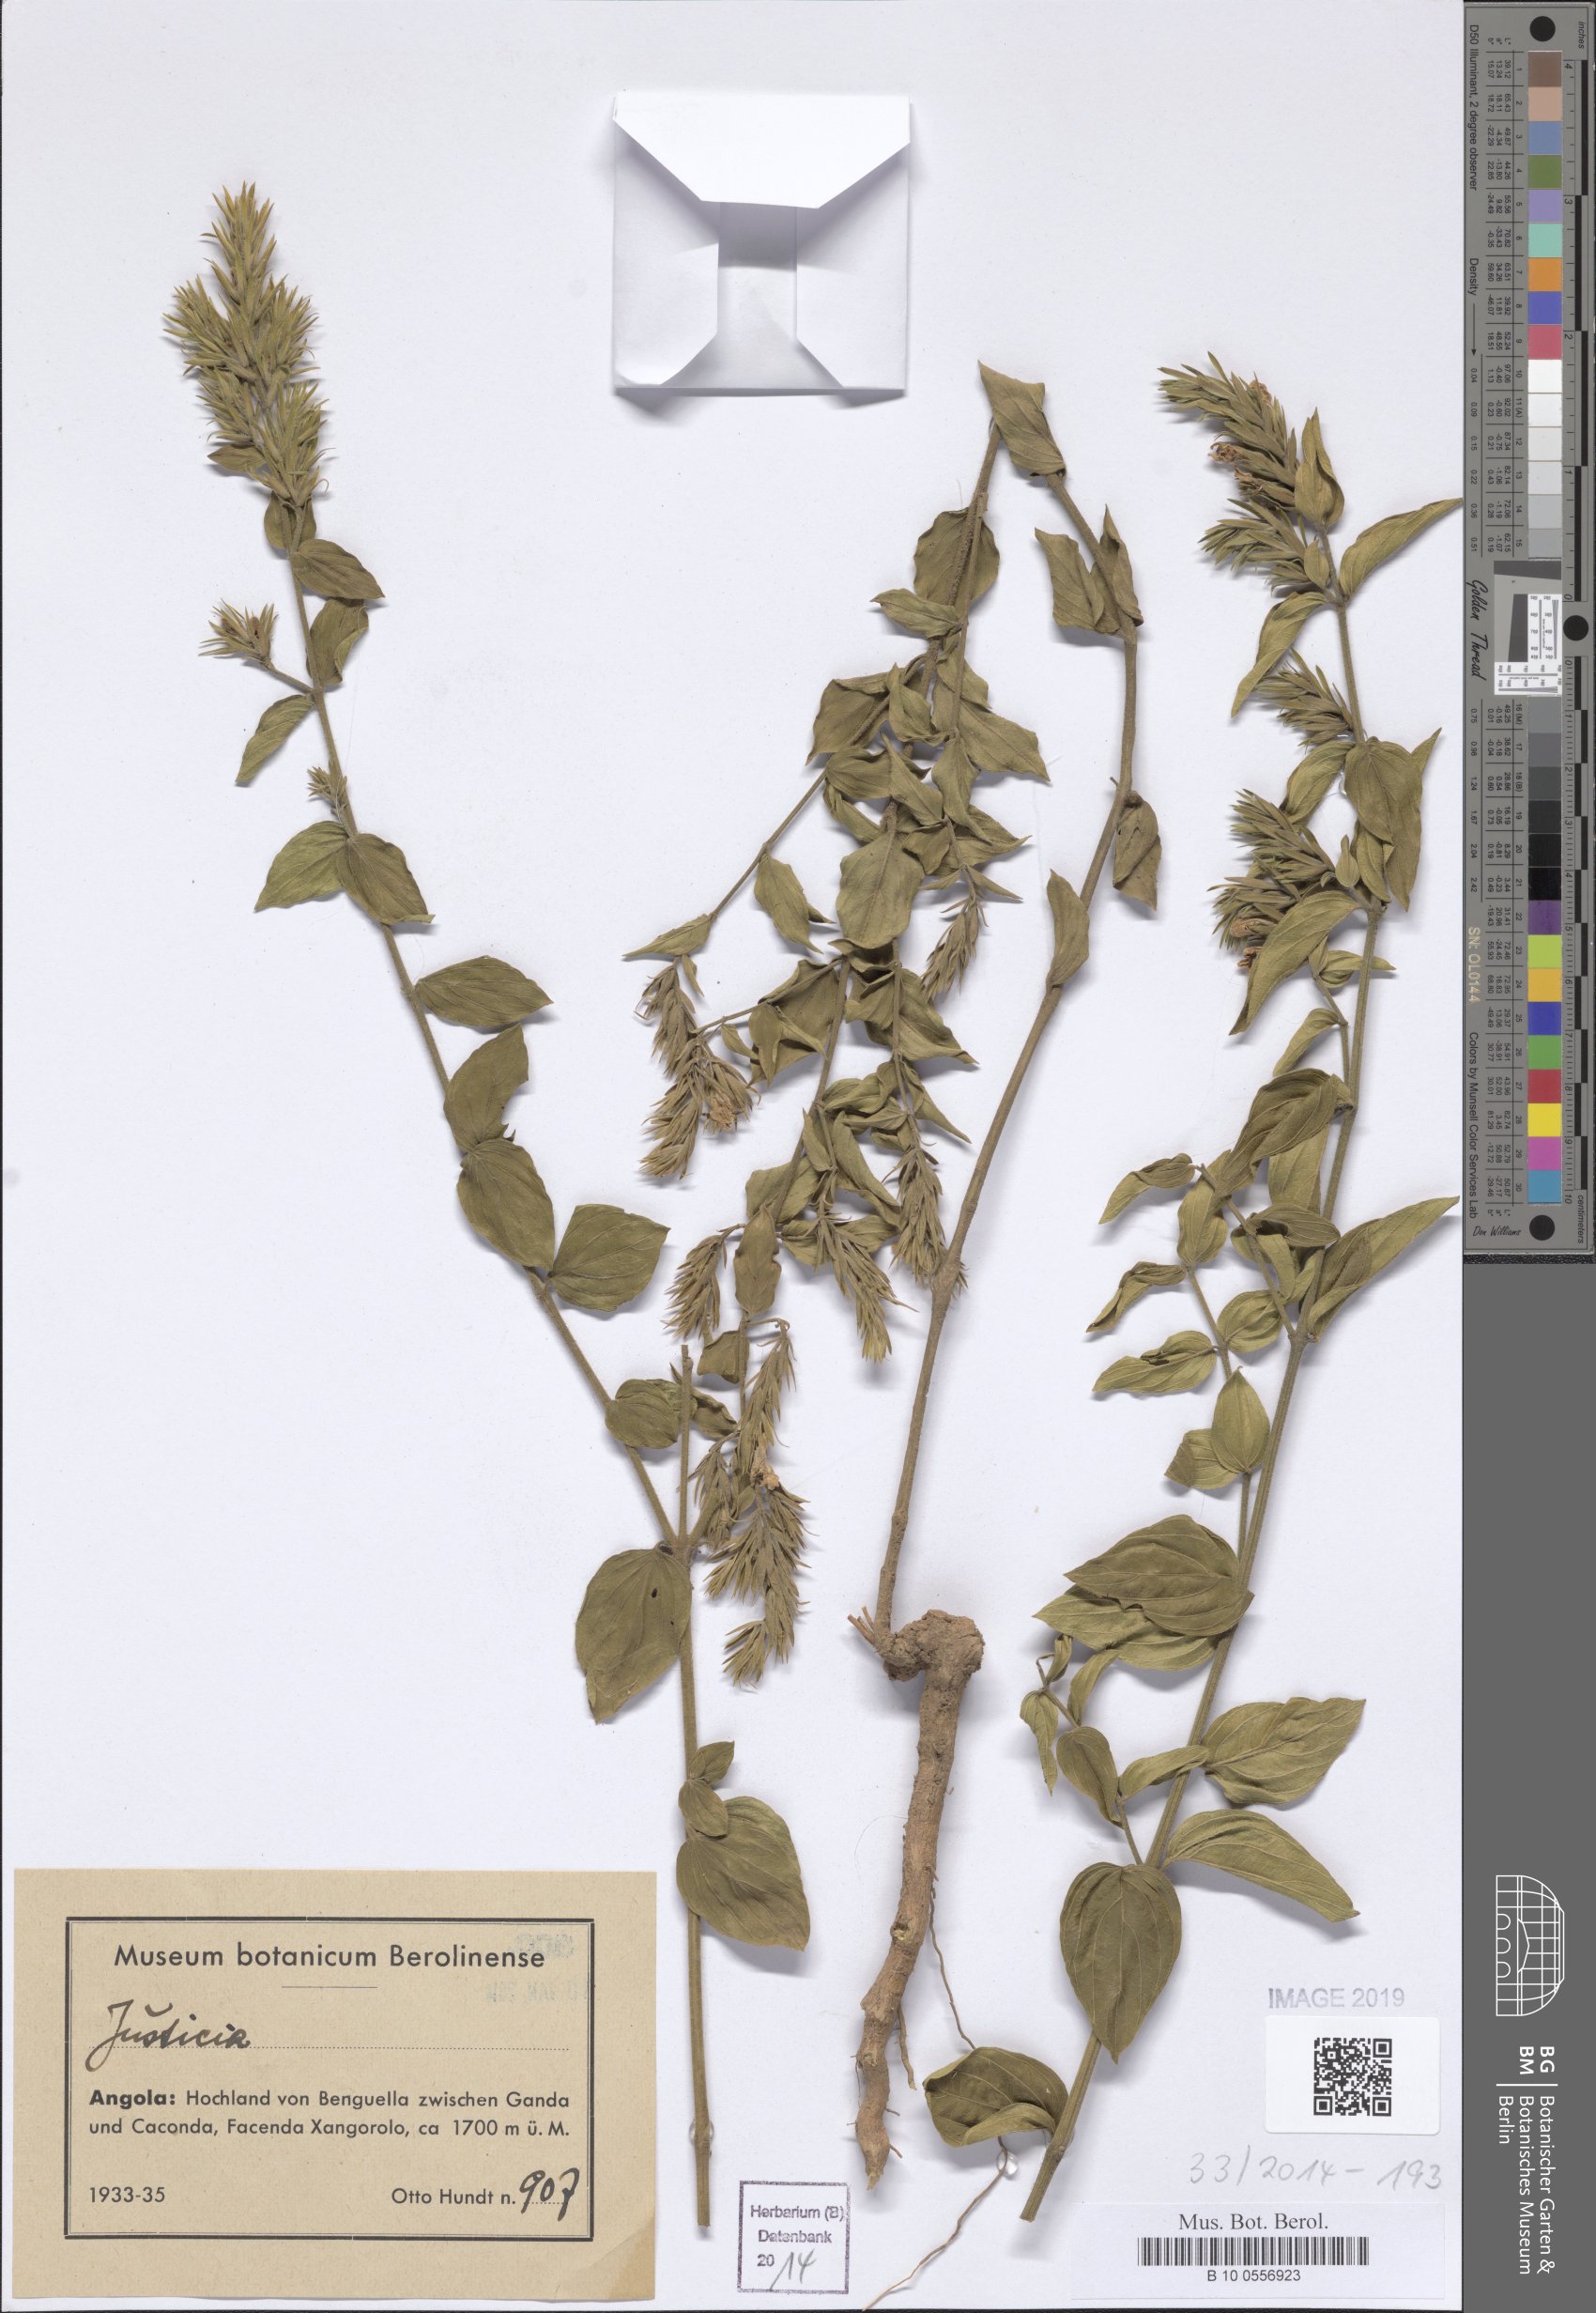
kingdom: Plantae
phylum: Tracheophyta
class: Magnoliopsida
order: Lamiales
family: Acanthaceae
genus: Justicia
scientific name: Justicia
